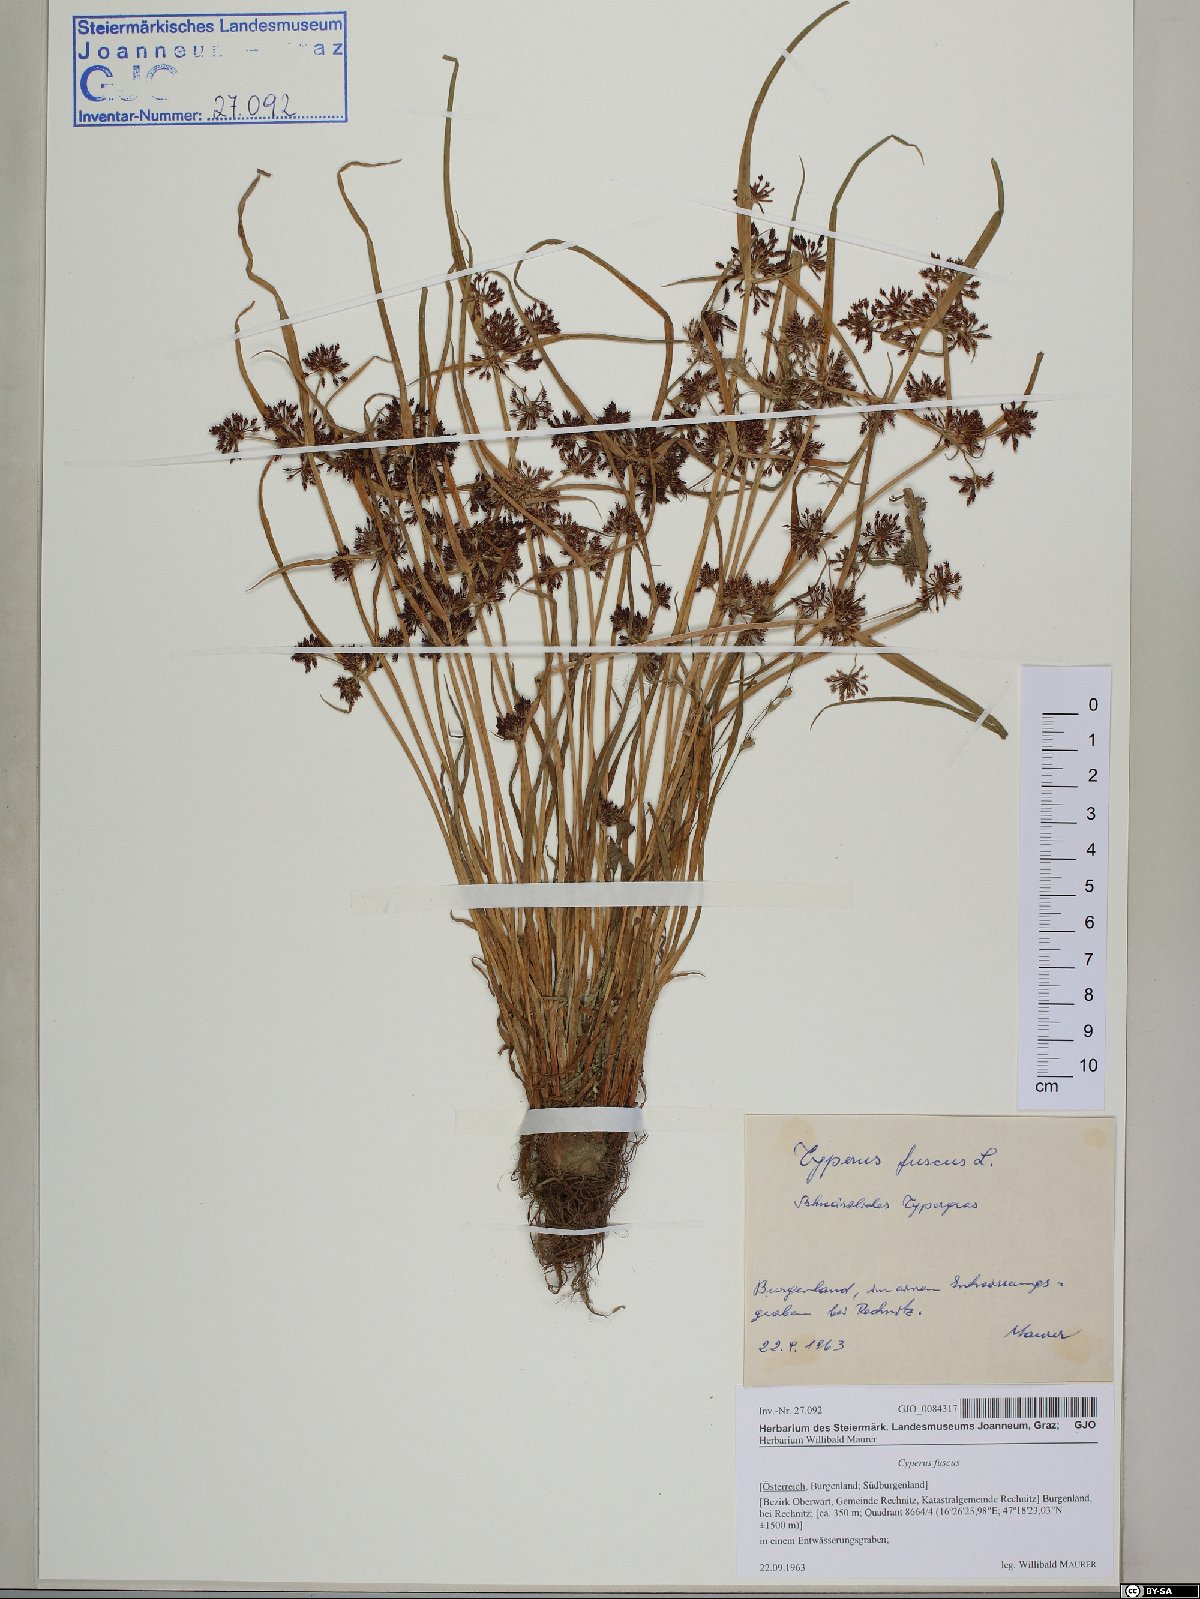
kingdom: Plantae
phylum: Tracheophyta
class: Liliopsida
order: Poales
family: Cyperaceae
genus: Cyperus
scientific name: Cyperus fuscus
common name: Brown galingale
